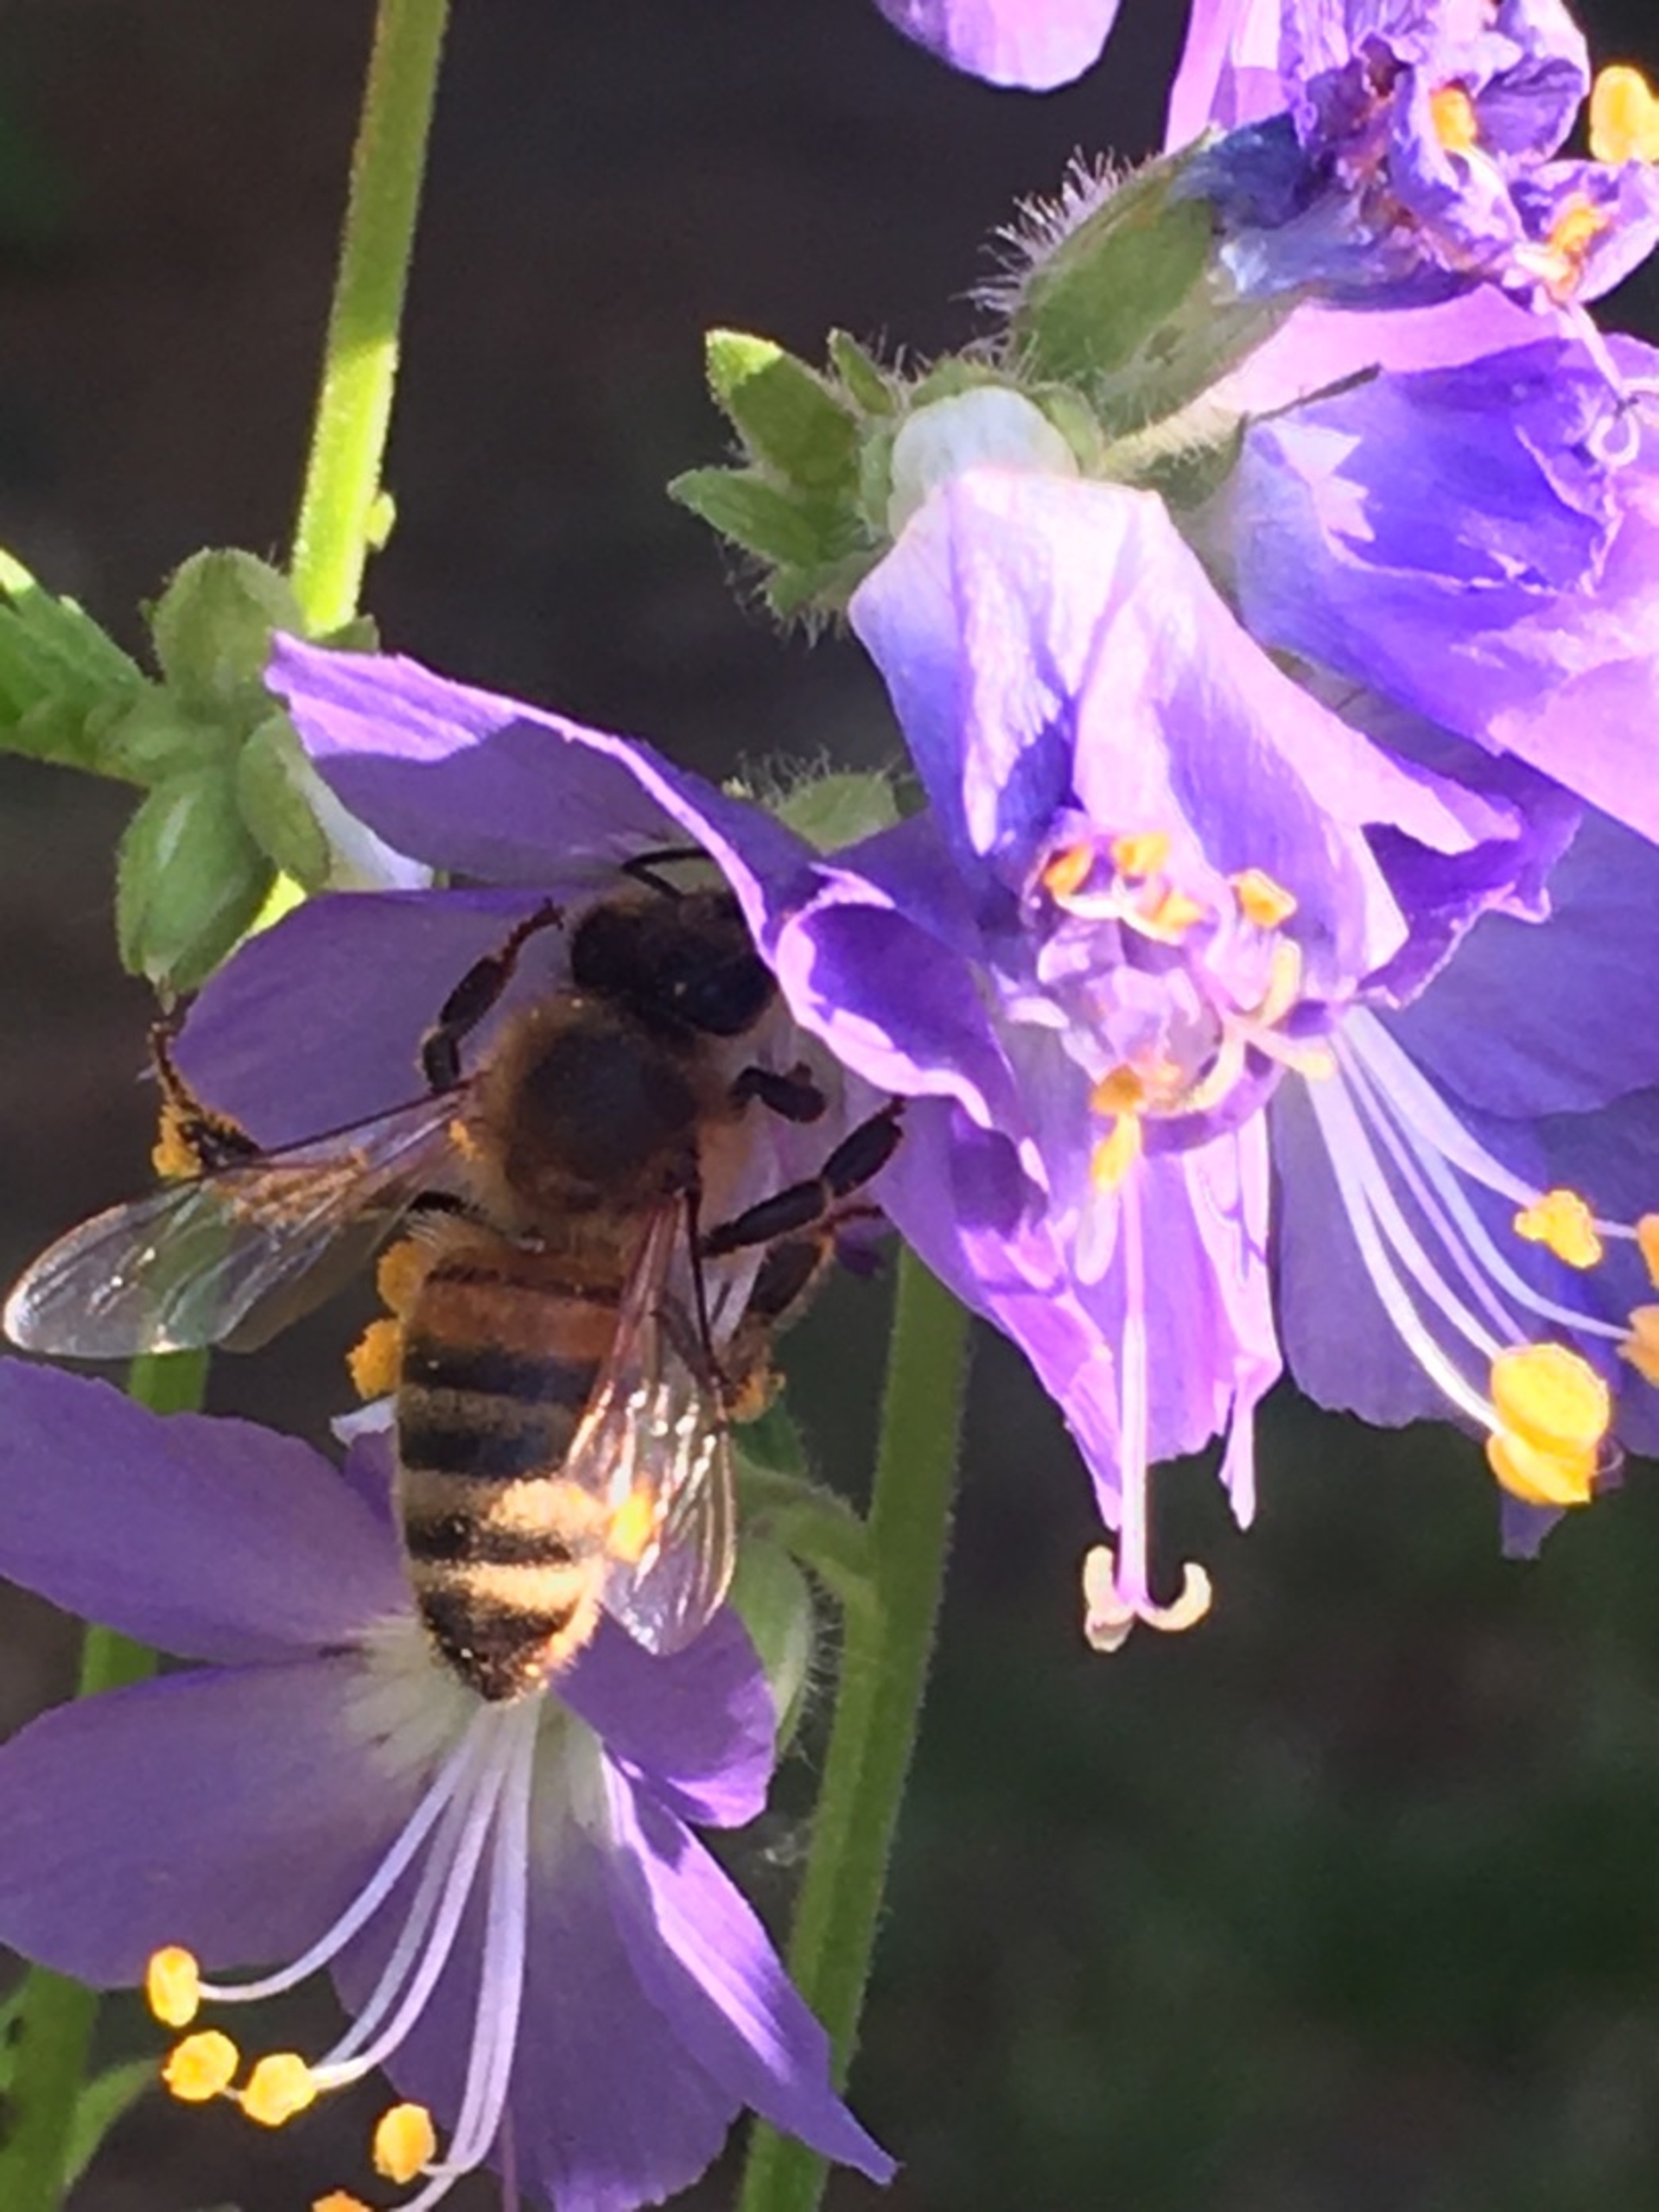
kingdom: Animalia
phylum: Arthropoda
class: Insecta
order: Hymenoptera
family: Apidae
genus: Apis
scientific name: Apis mellifera
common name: Honningbi
